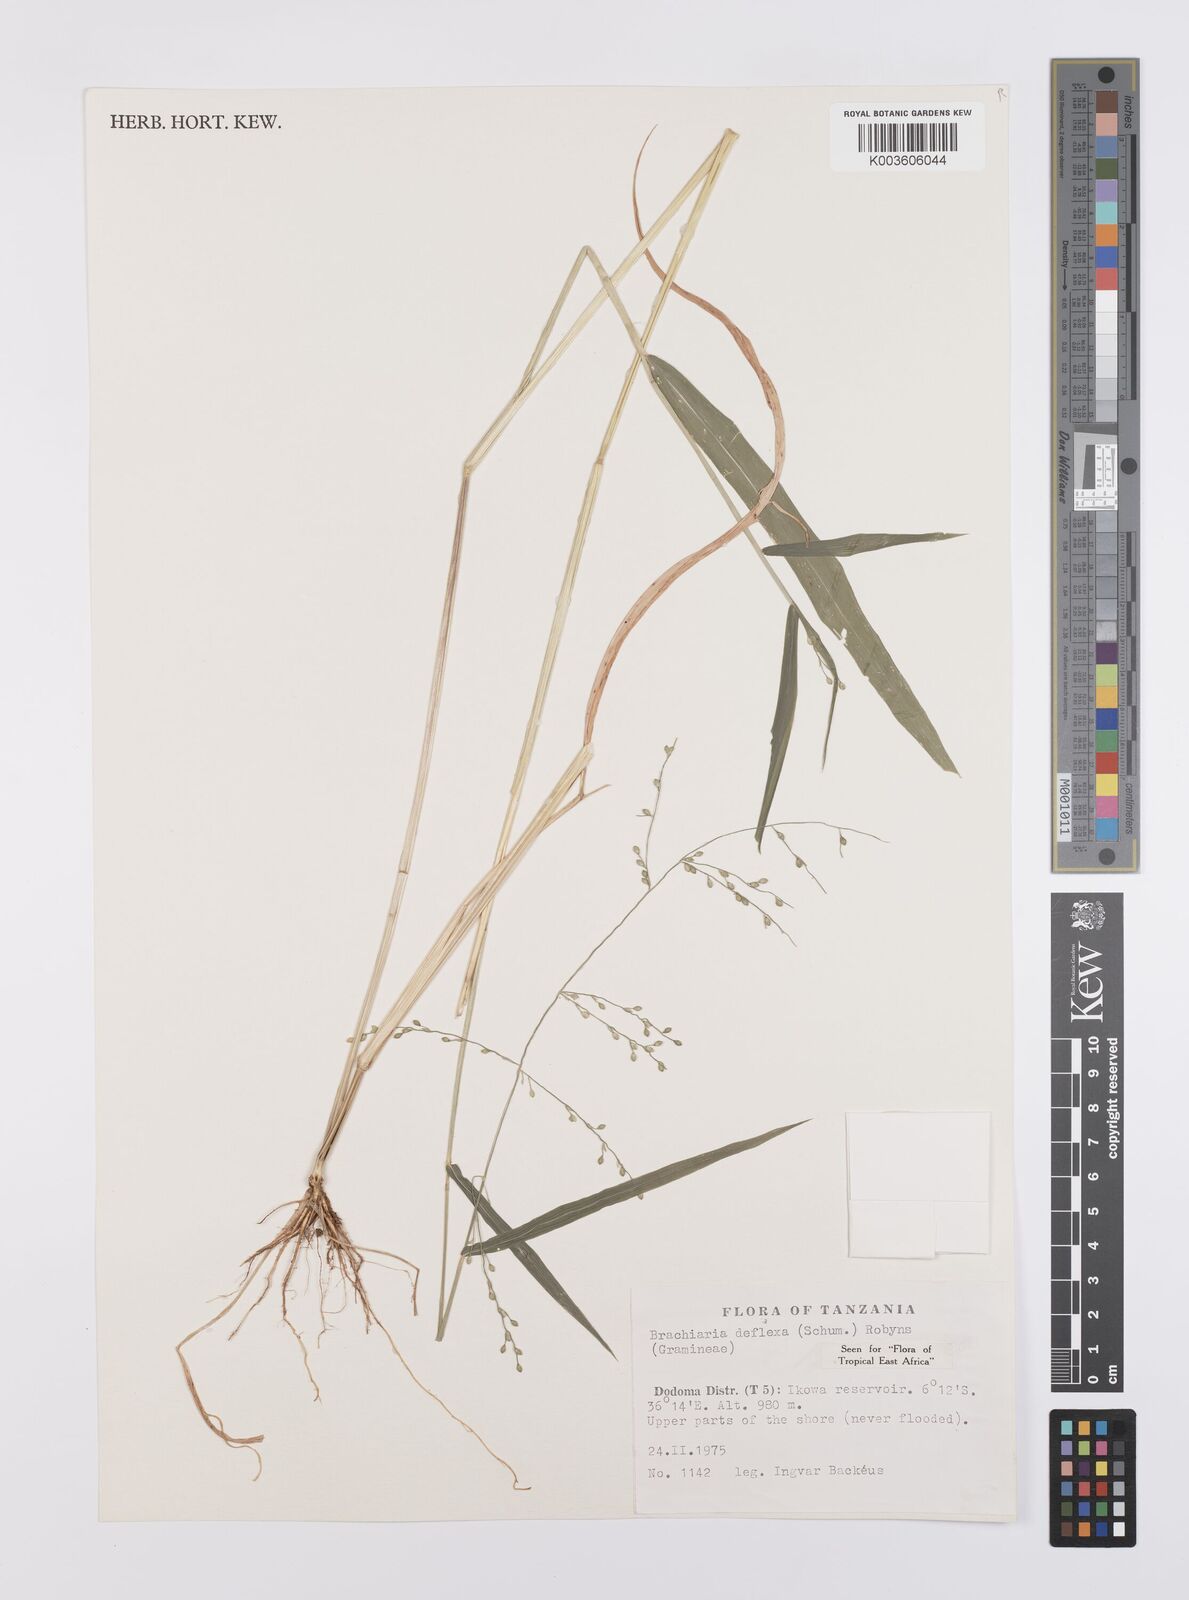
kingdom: Plantae
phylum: Tracheophyta
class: Liliopsida
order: Poales
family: Poaceae
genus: Urochloa
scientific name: Urochloa deflexa
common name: Guinea millet
